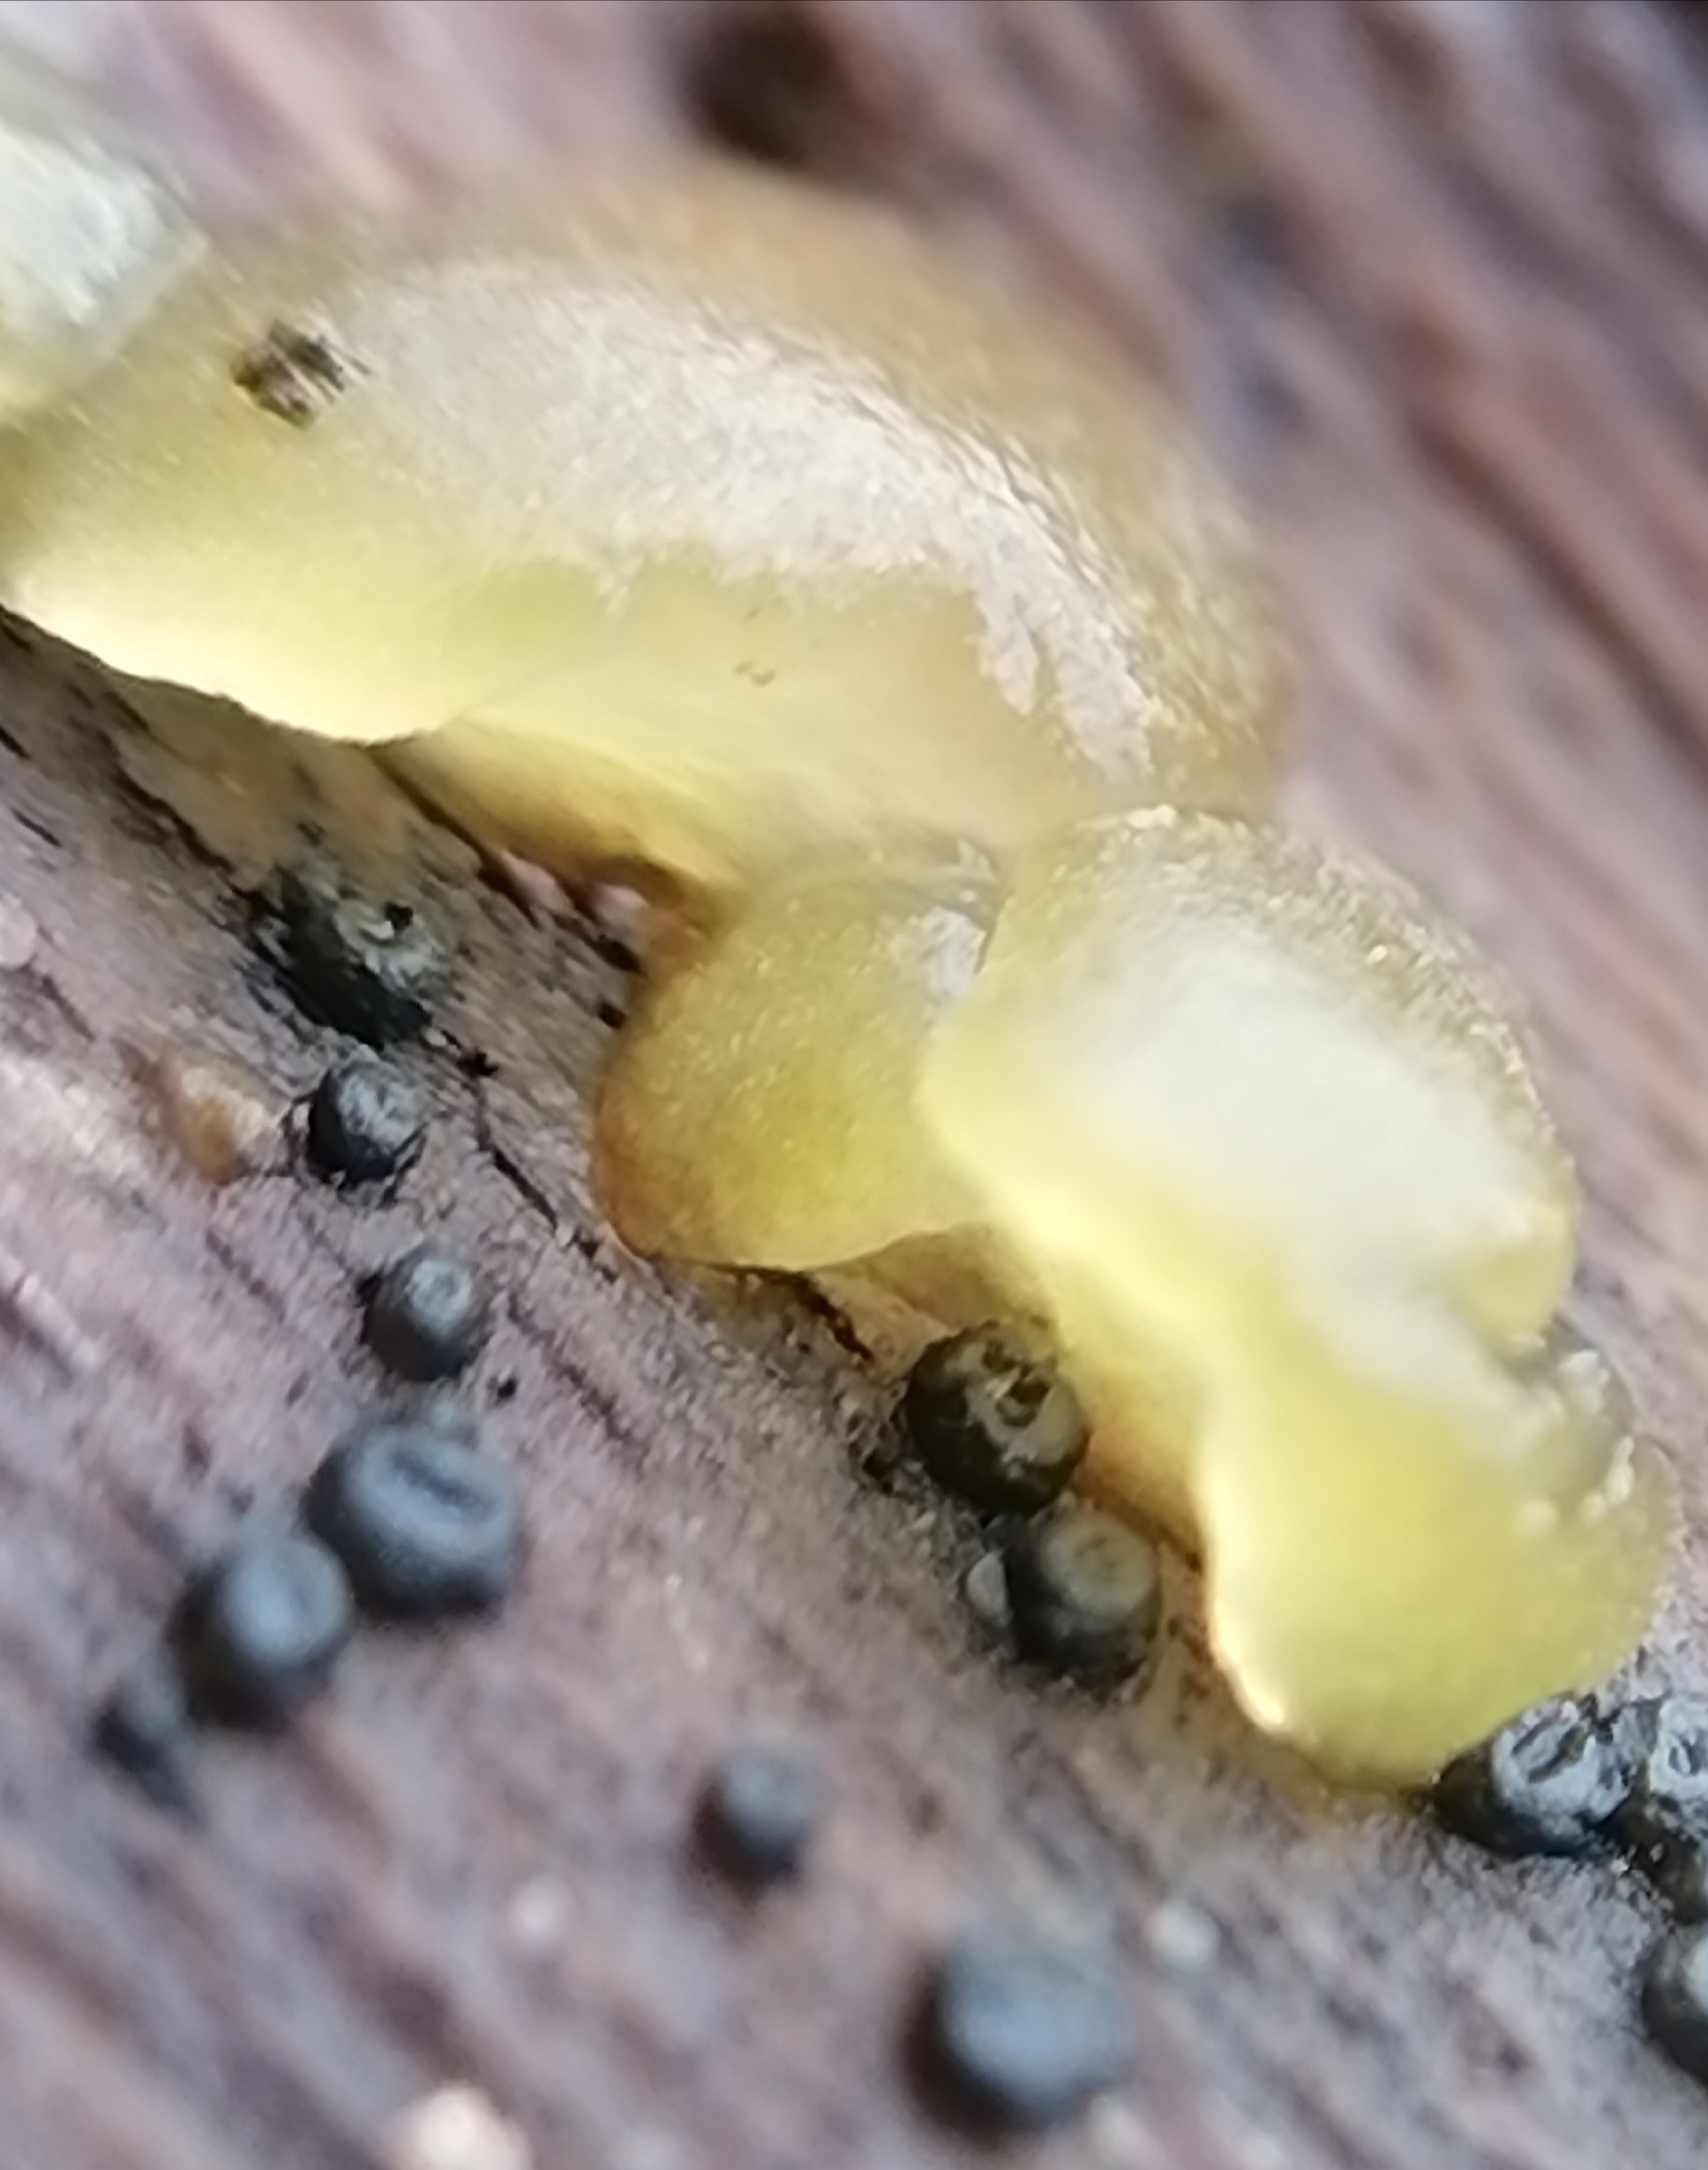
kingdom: Fungi
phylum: Basidiomycota
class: Dacrymycetes
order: Dacrymycetales
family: Dacrymycetaceae
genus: Dacrymyces
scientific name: Dacrymyces lacrymalis
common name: rynket tåresvamp
